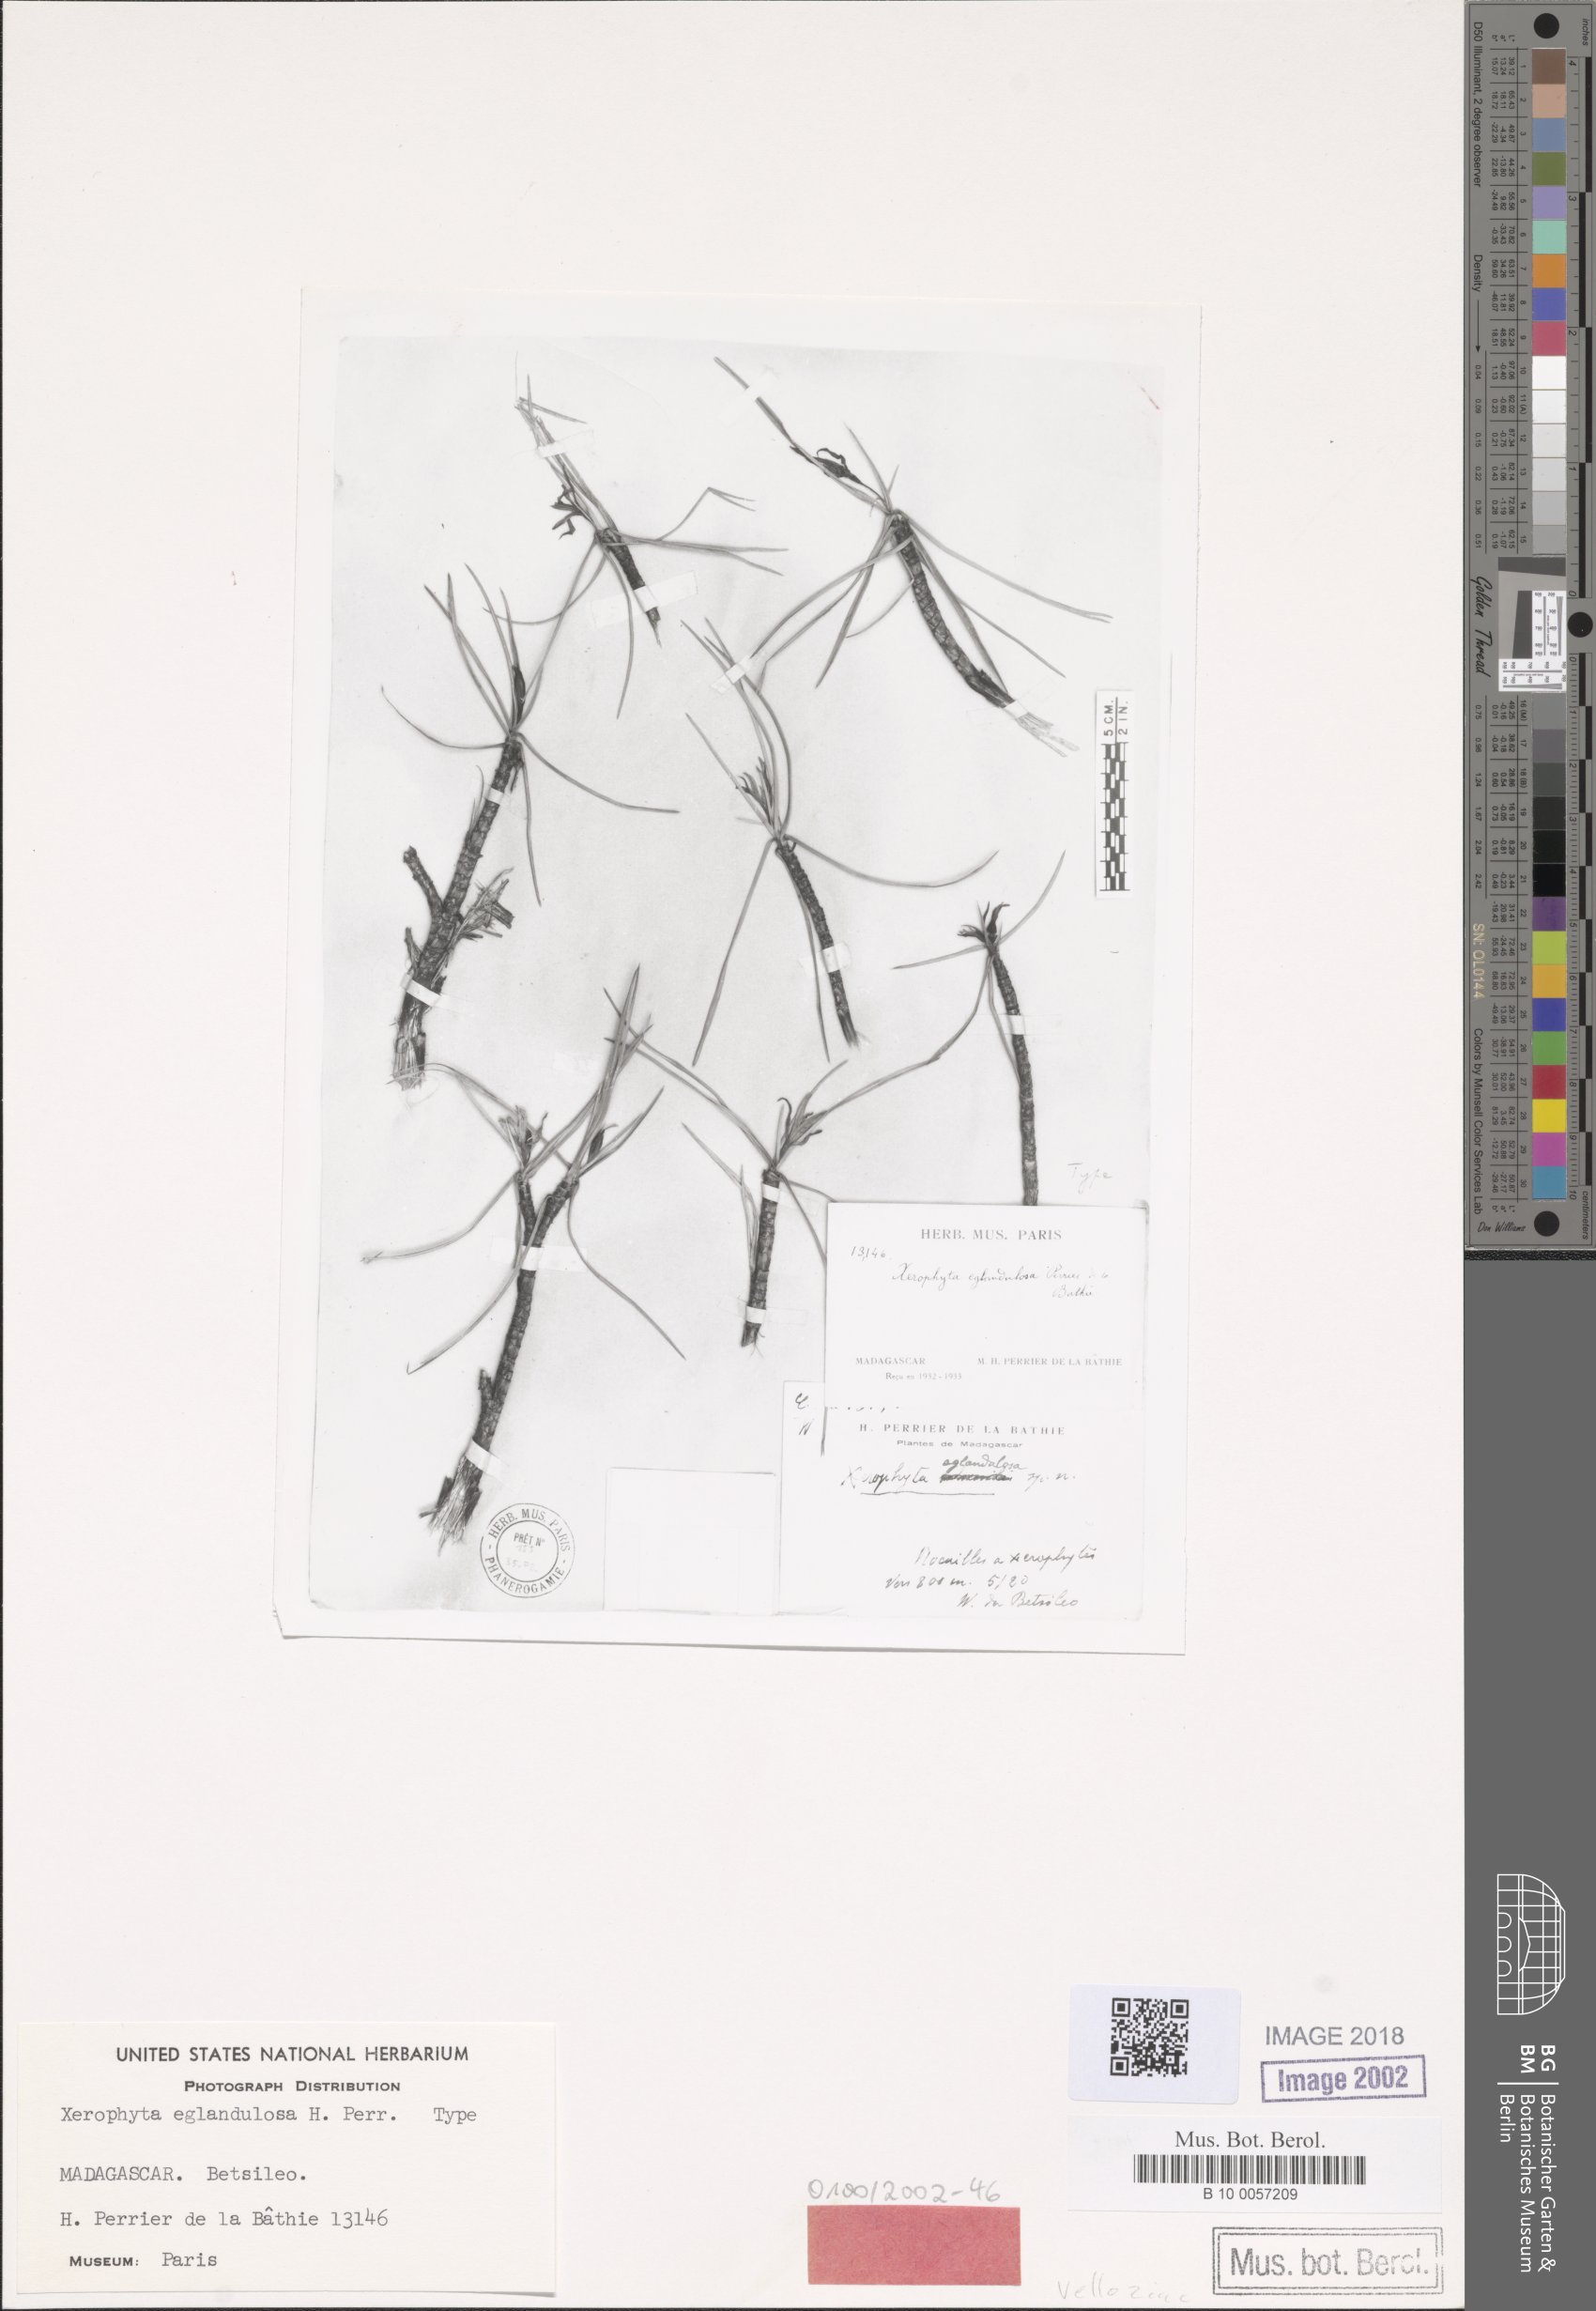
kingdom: Plantae
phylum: Tracheophyta
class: Liliopsida
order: Pandanales
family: Velloziaceae
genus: Xerophyta
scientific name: Xerophyta eglandulosa
